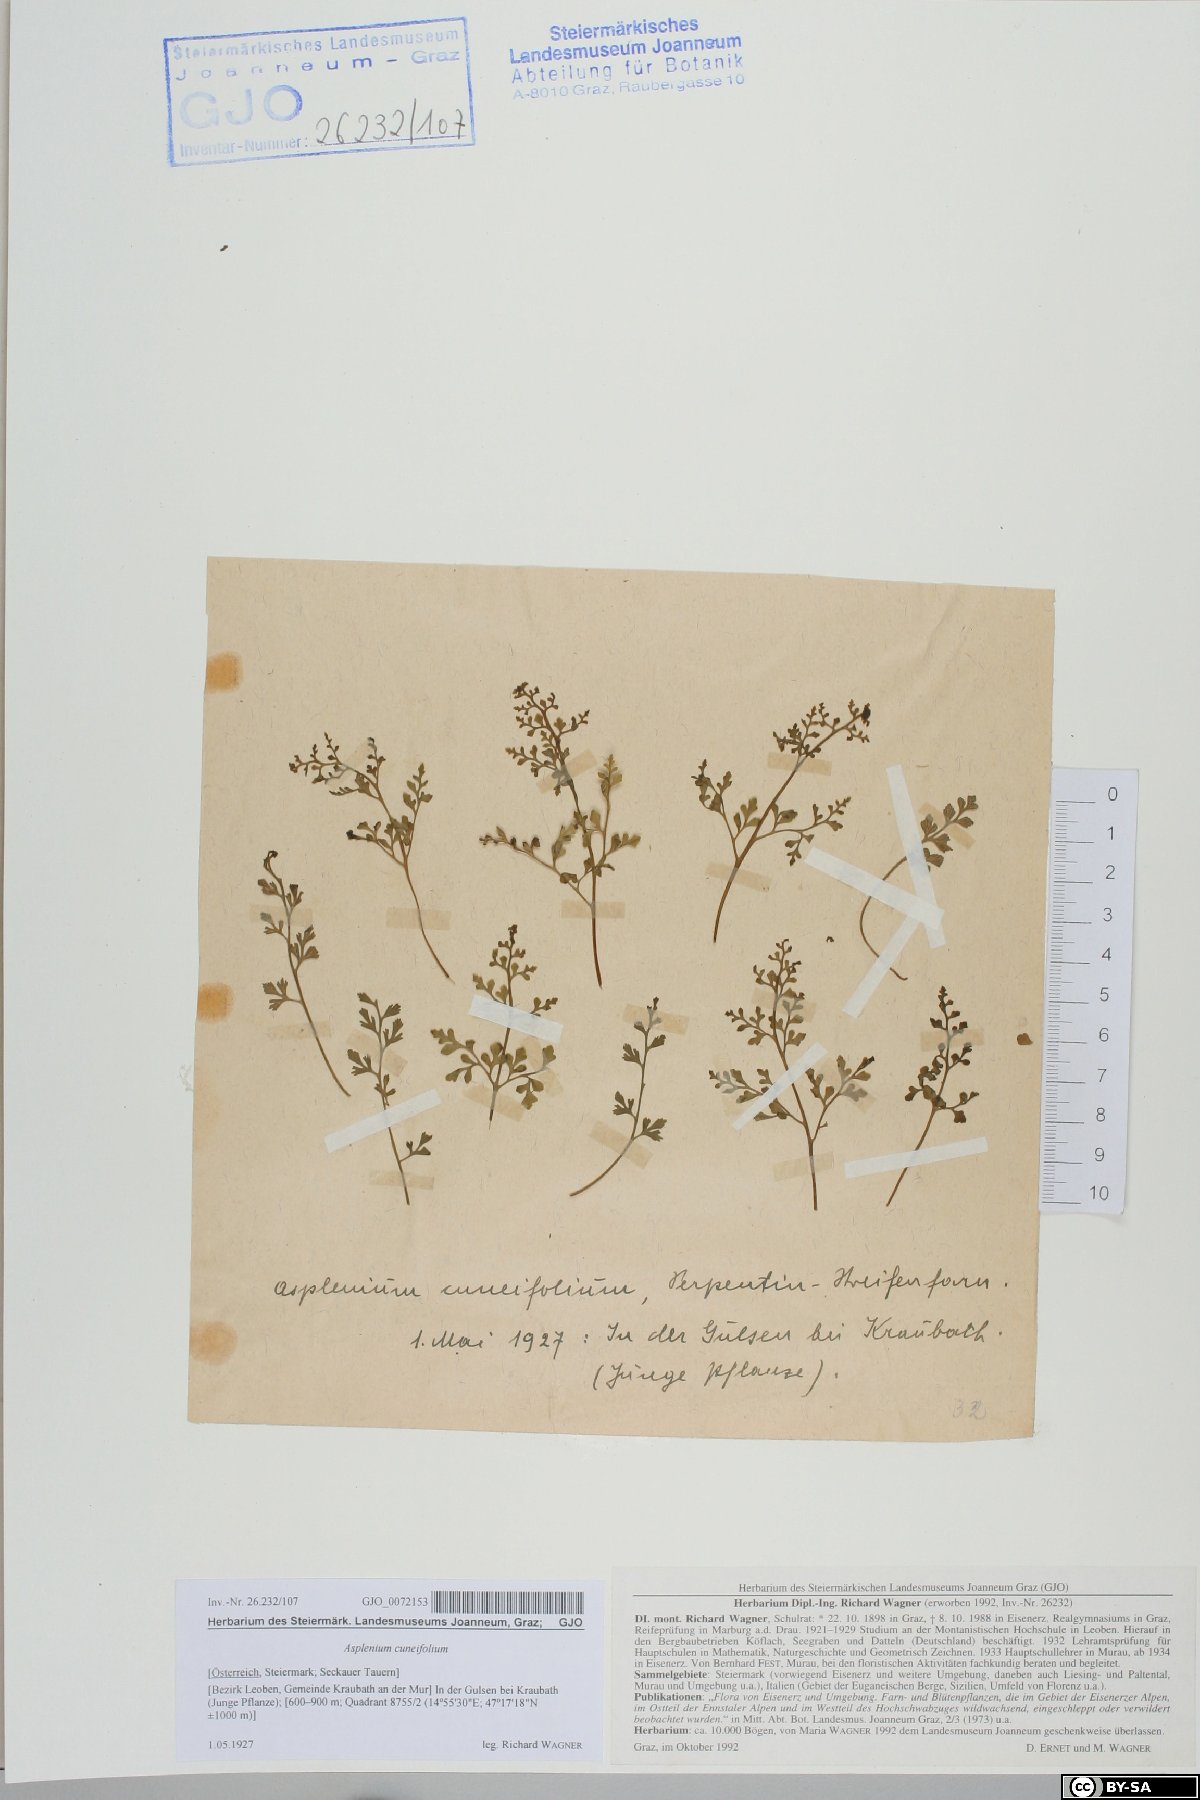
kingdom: Plantae
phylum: Tracheophyta
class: Polypodiopsida
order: Polypodiales
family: Aspleniaceae
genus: Asplenium
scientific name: Asplenium cuneifolium
